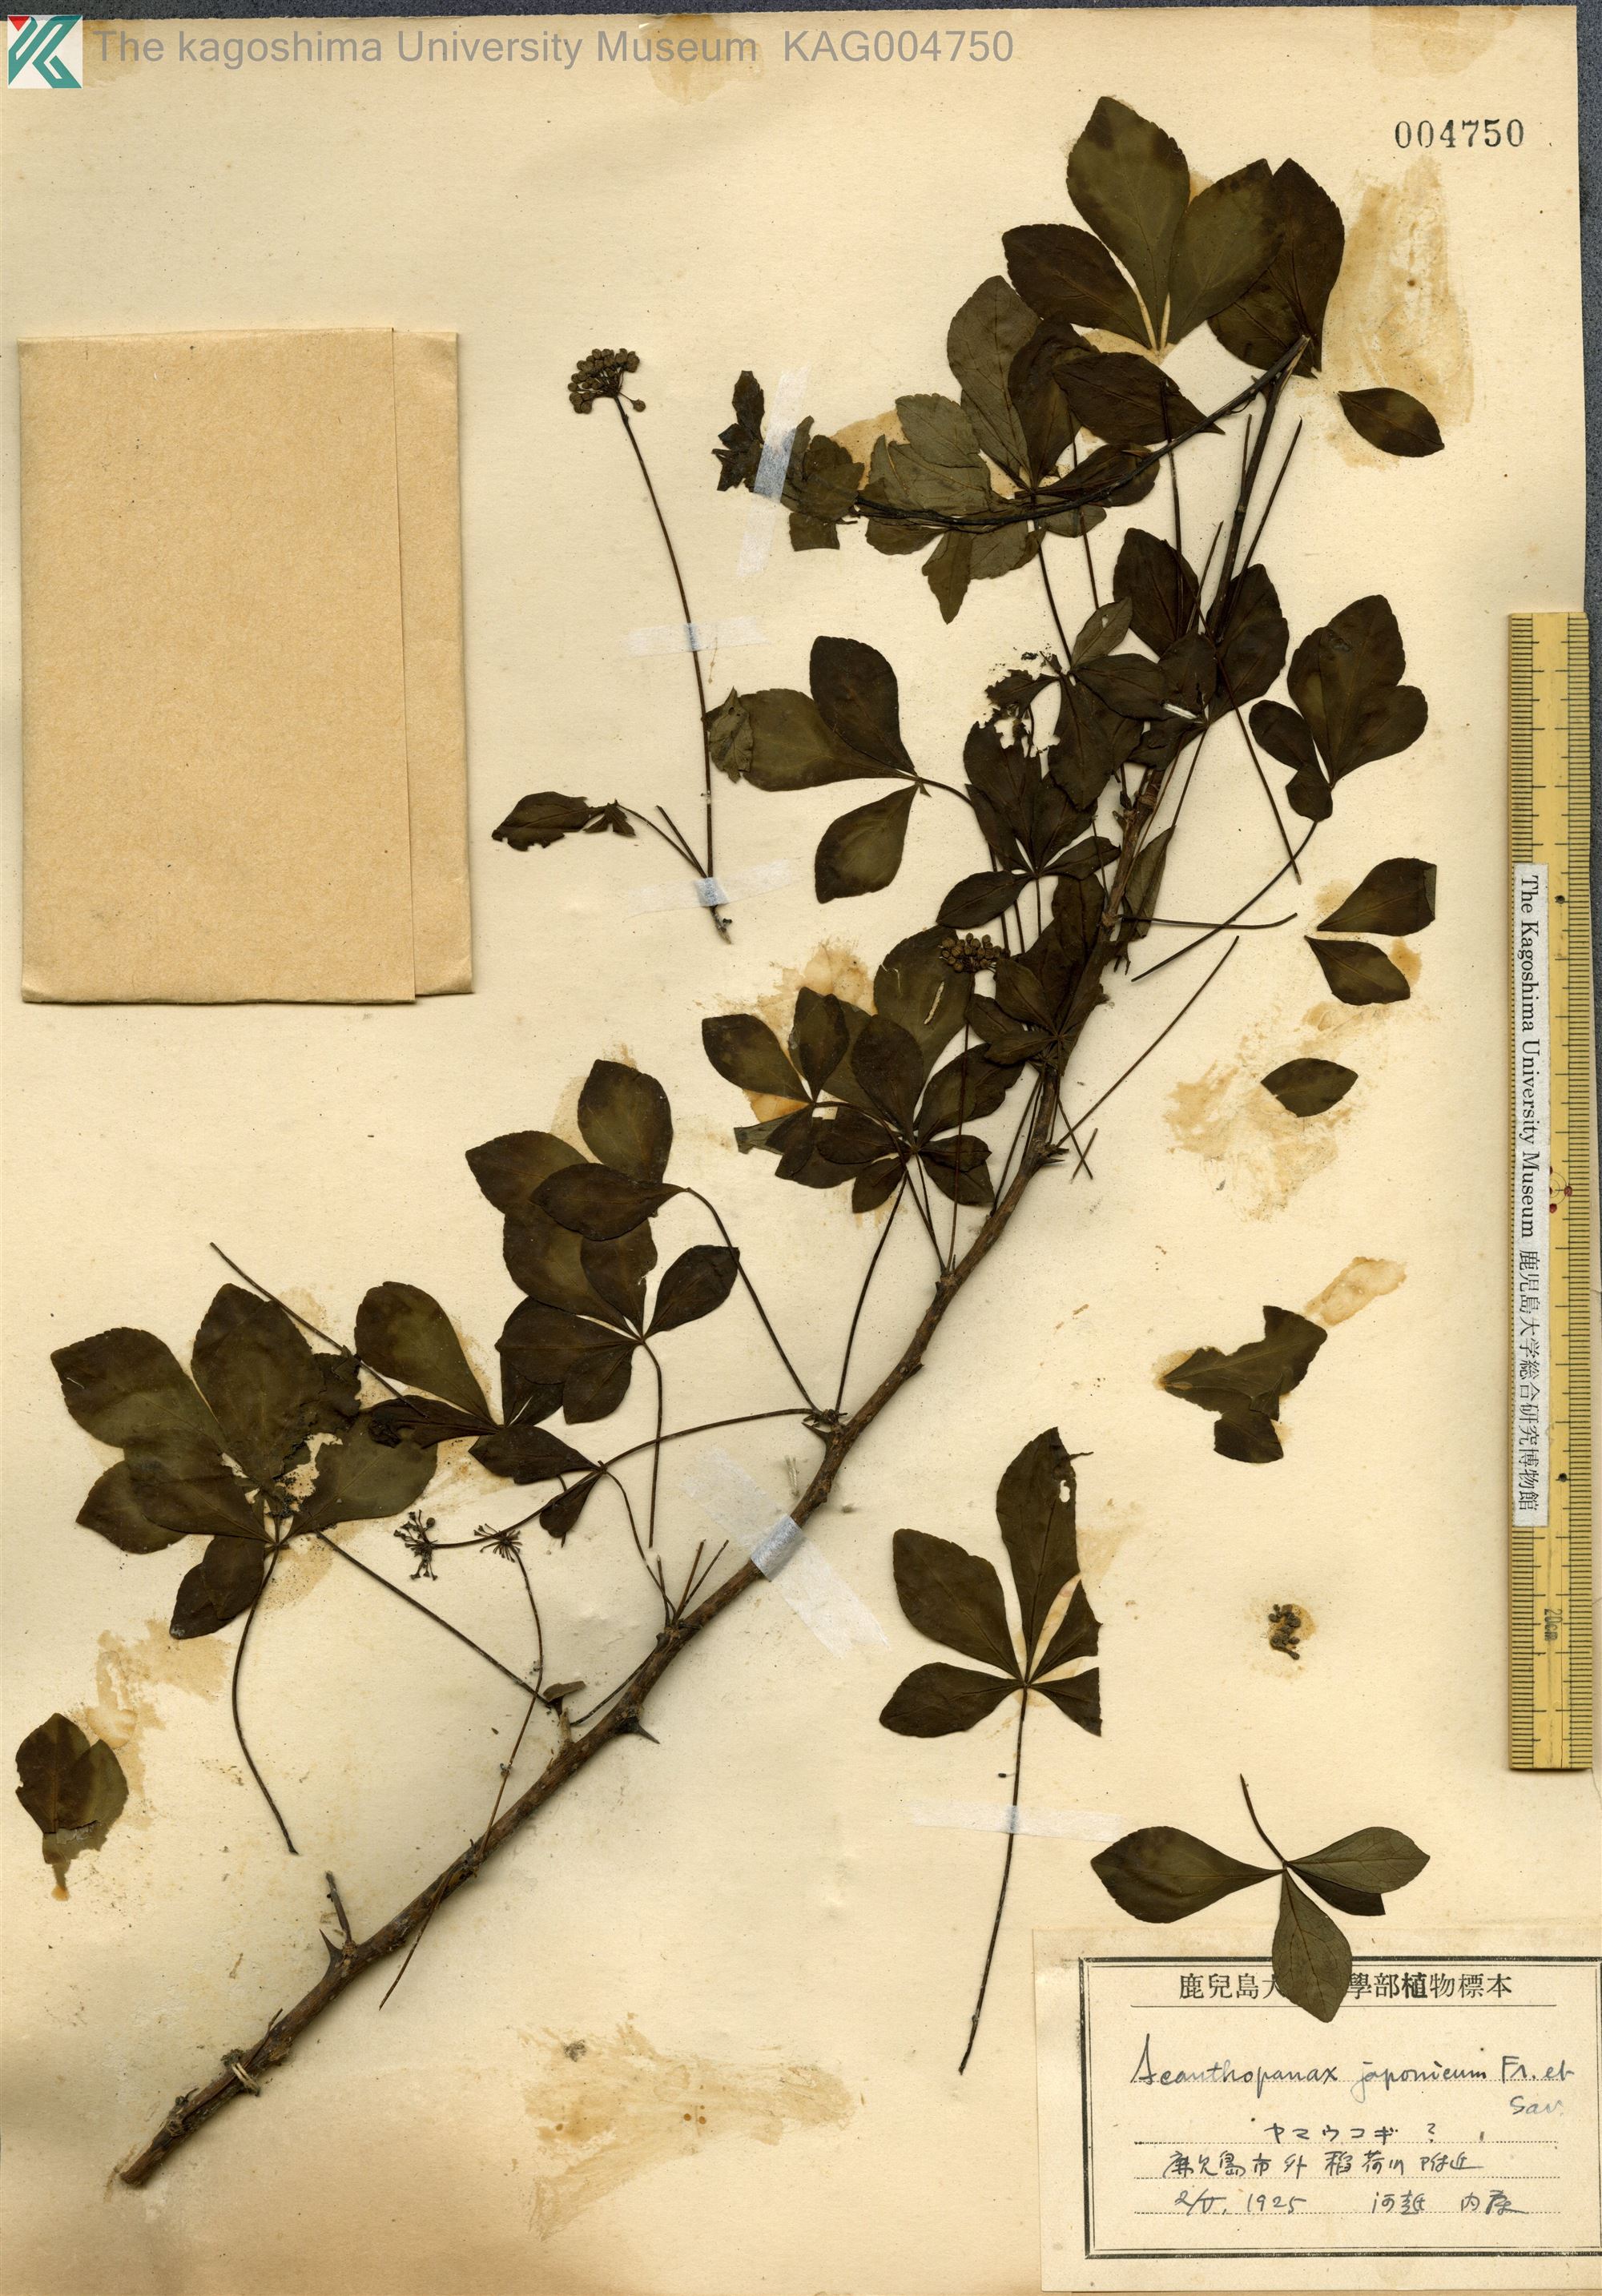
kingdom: Plantae
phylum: Tracheophyta
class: Magnoliopsida
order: Apiales
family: Araliaceae
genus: Eleutherococcus
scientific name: Eleutherococcus japonicus
